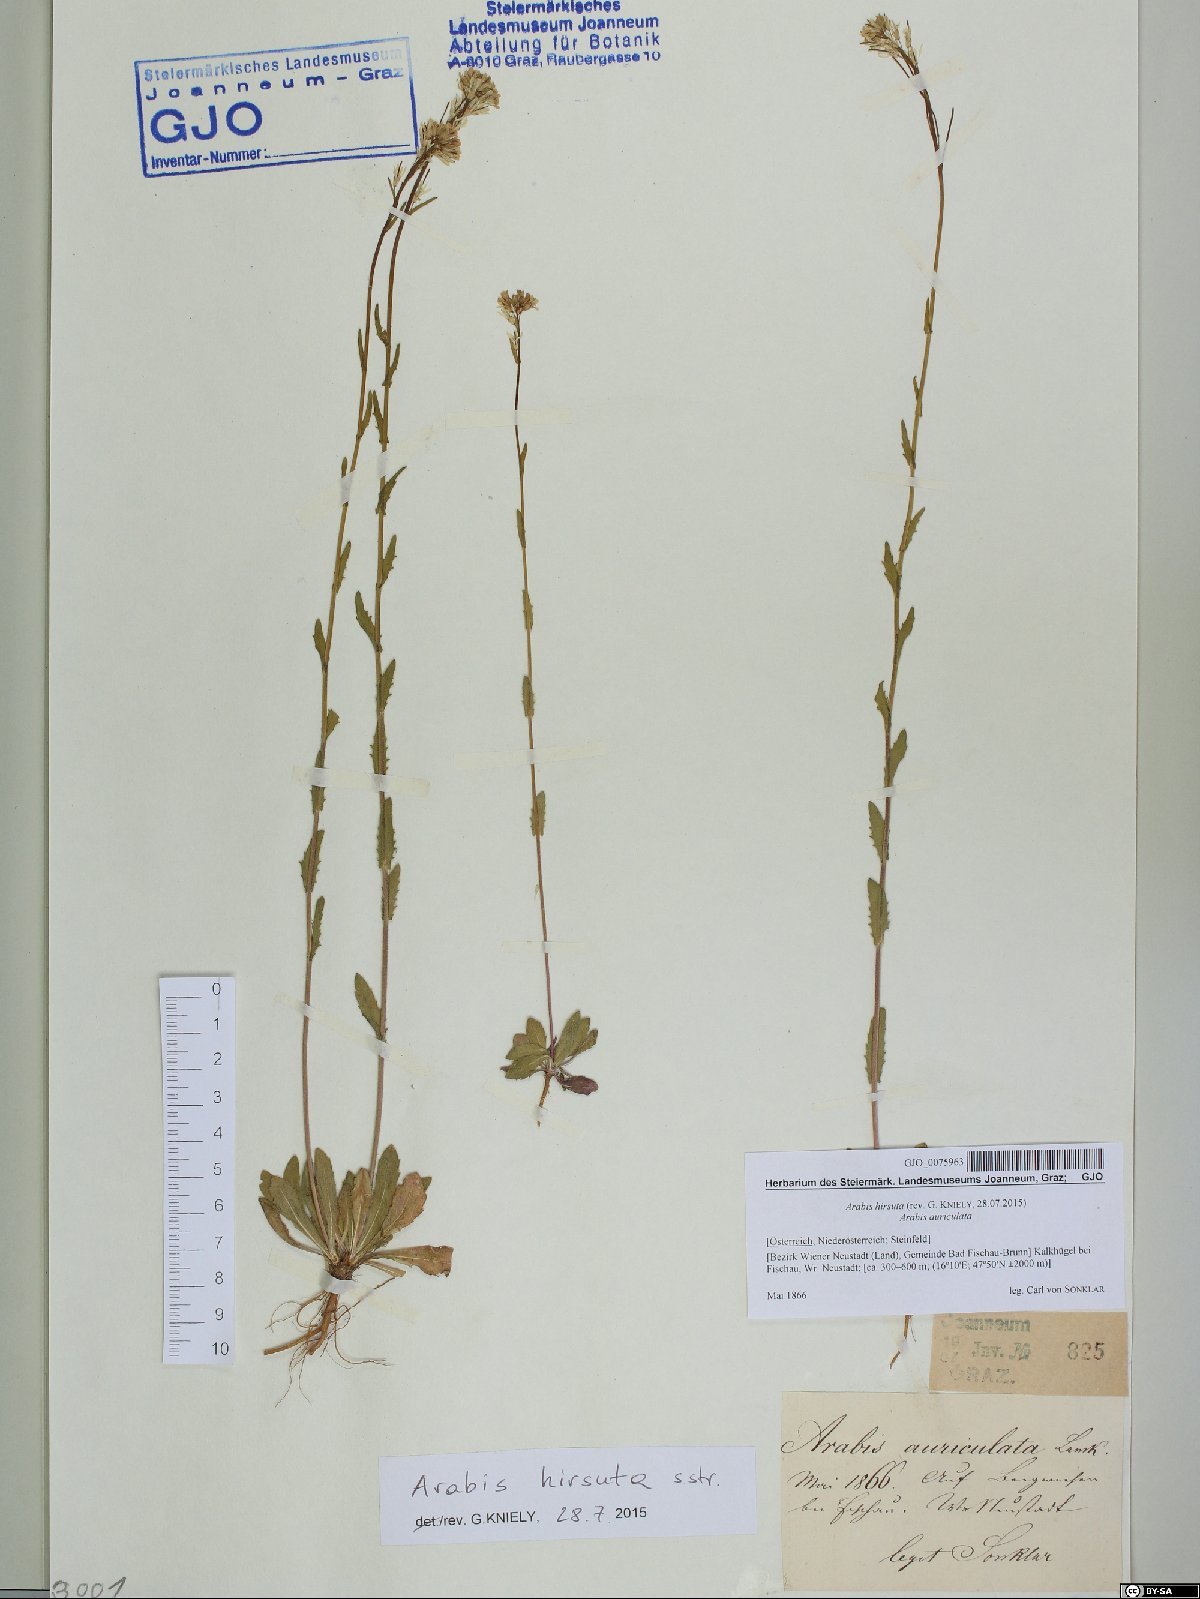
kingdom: Plantae
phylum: Tracheophyta
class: Magnoliopsida
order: Brassicales
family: Brassicaceae
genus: Arabis
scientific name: Arabis hirsuta
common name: Hairy rock-cress
